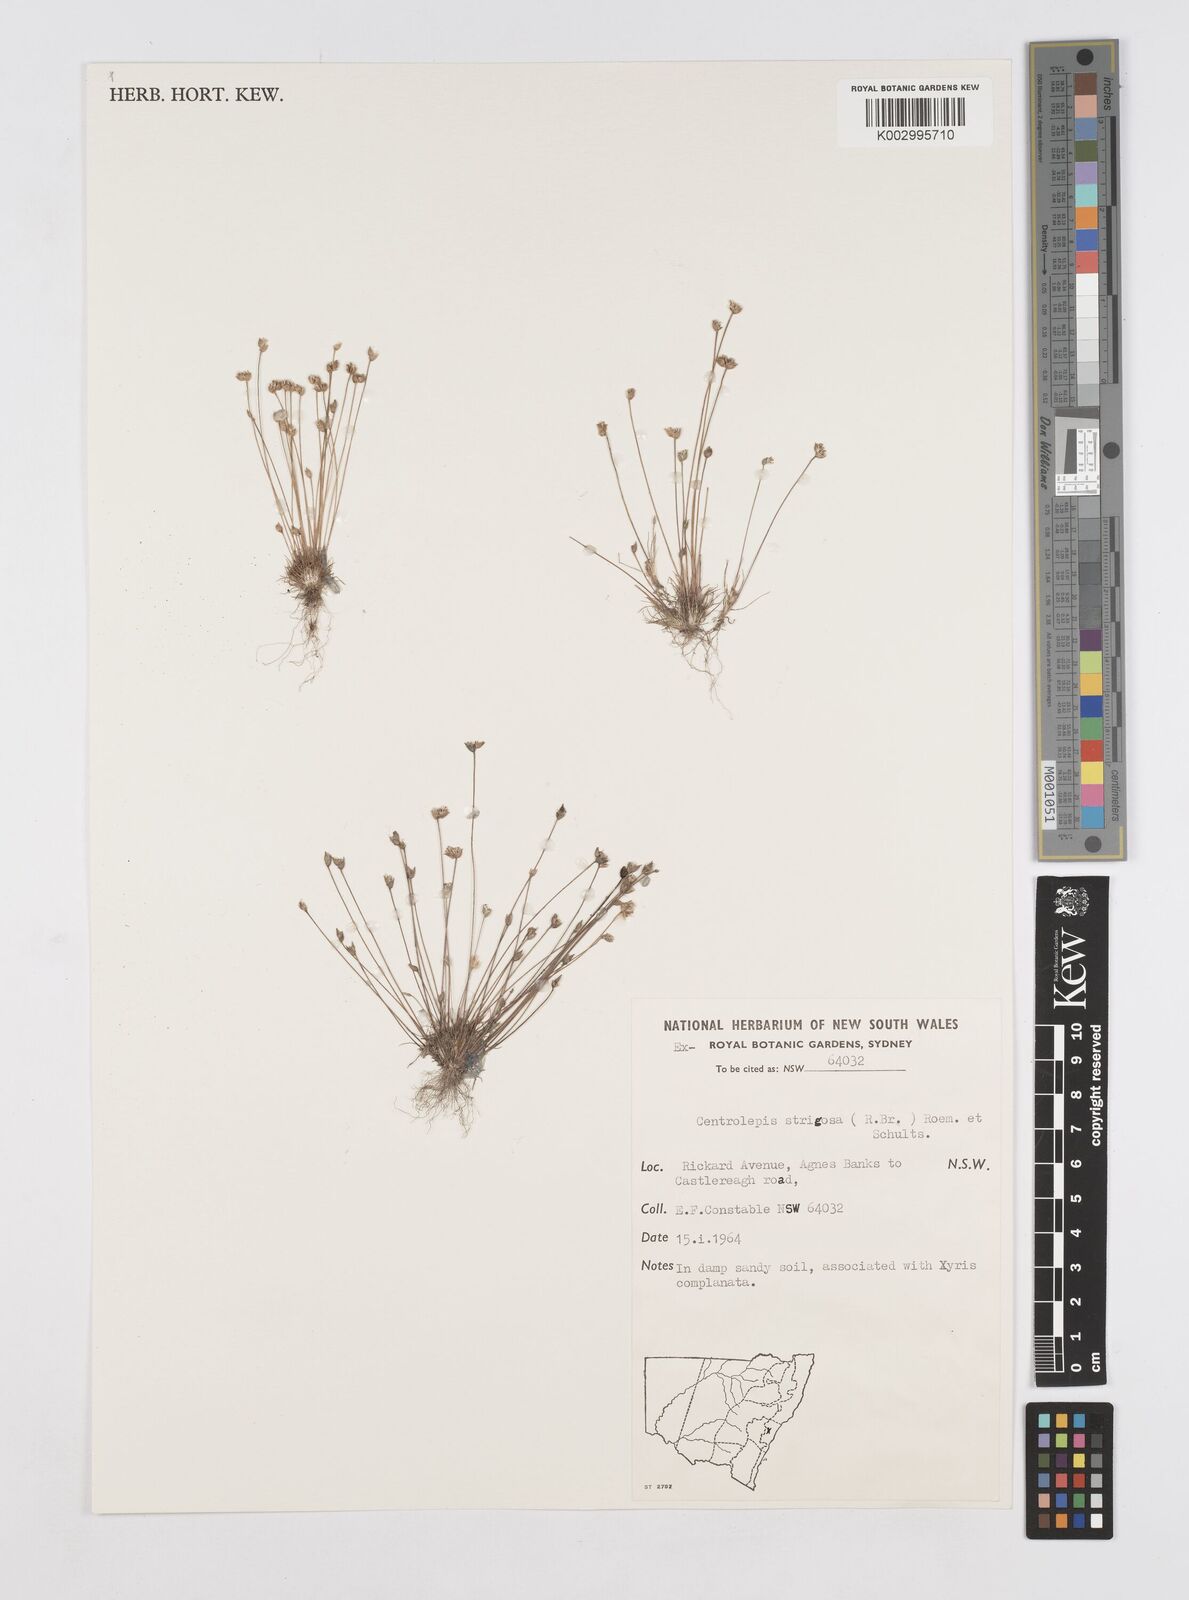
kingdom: Plantae
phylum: Tracheophyta
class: Liliopsida
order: Poales
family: Restionaceae
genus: Centrolepis
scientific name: Centrolepis strigosa
